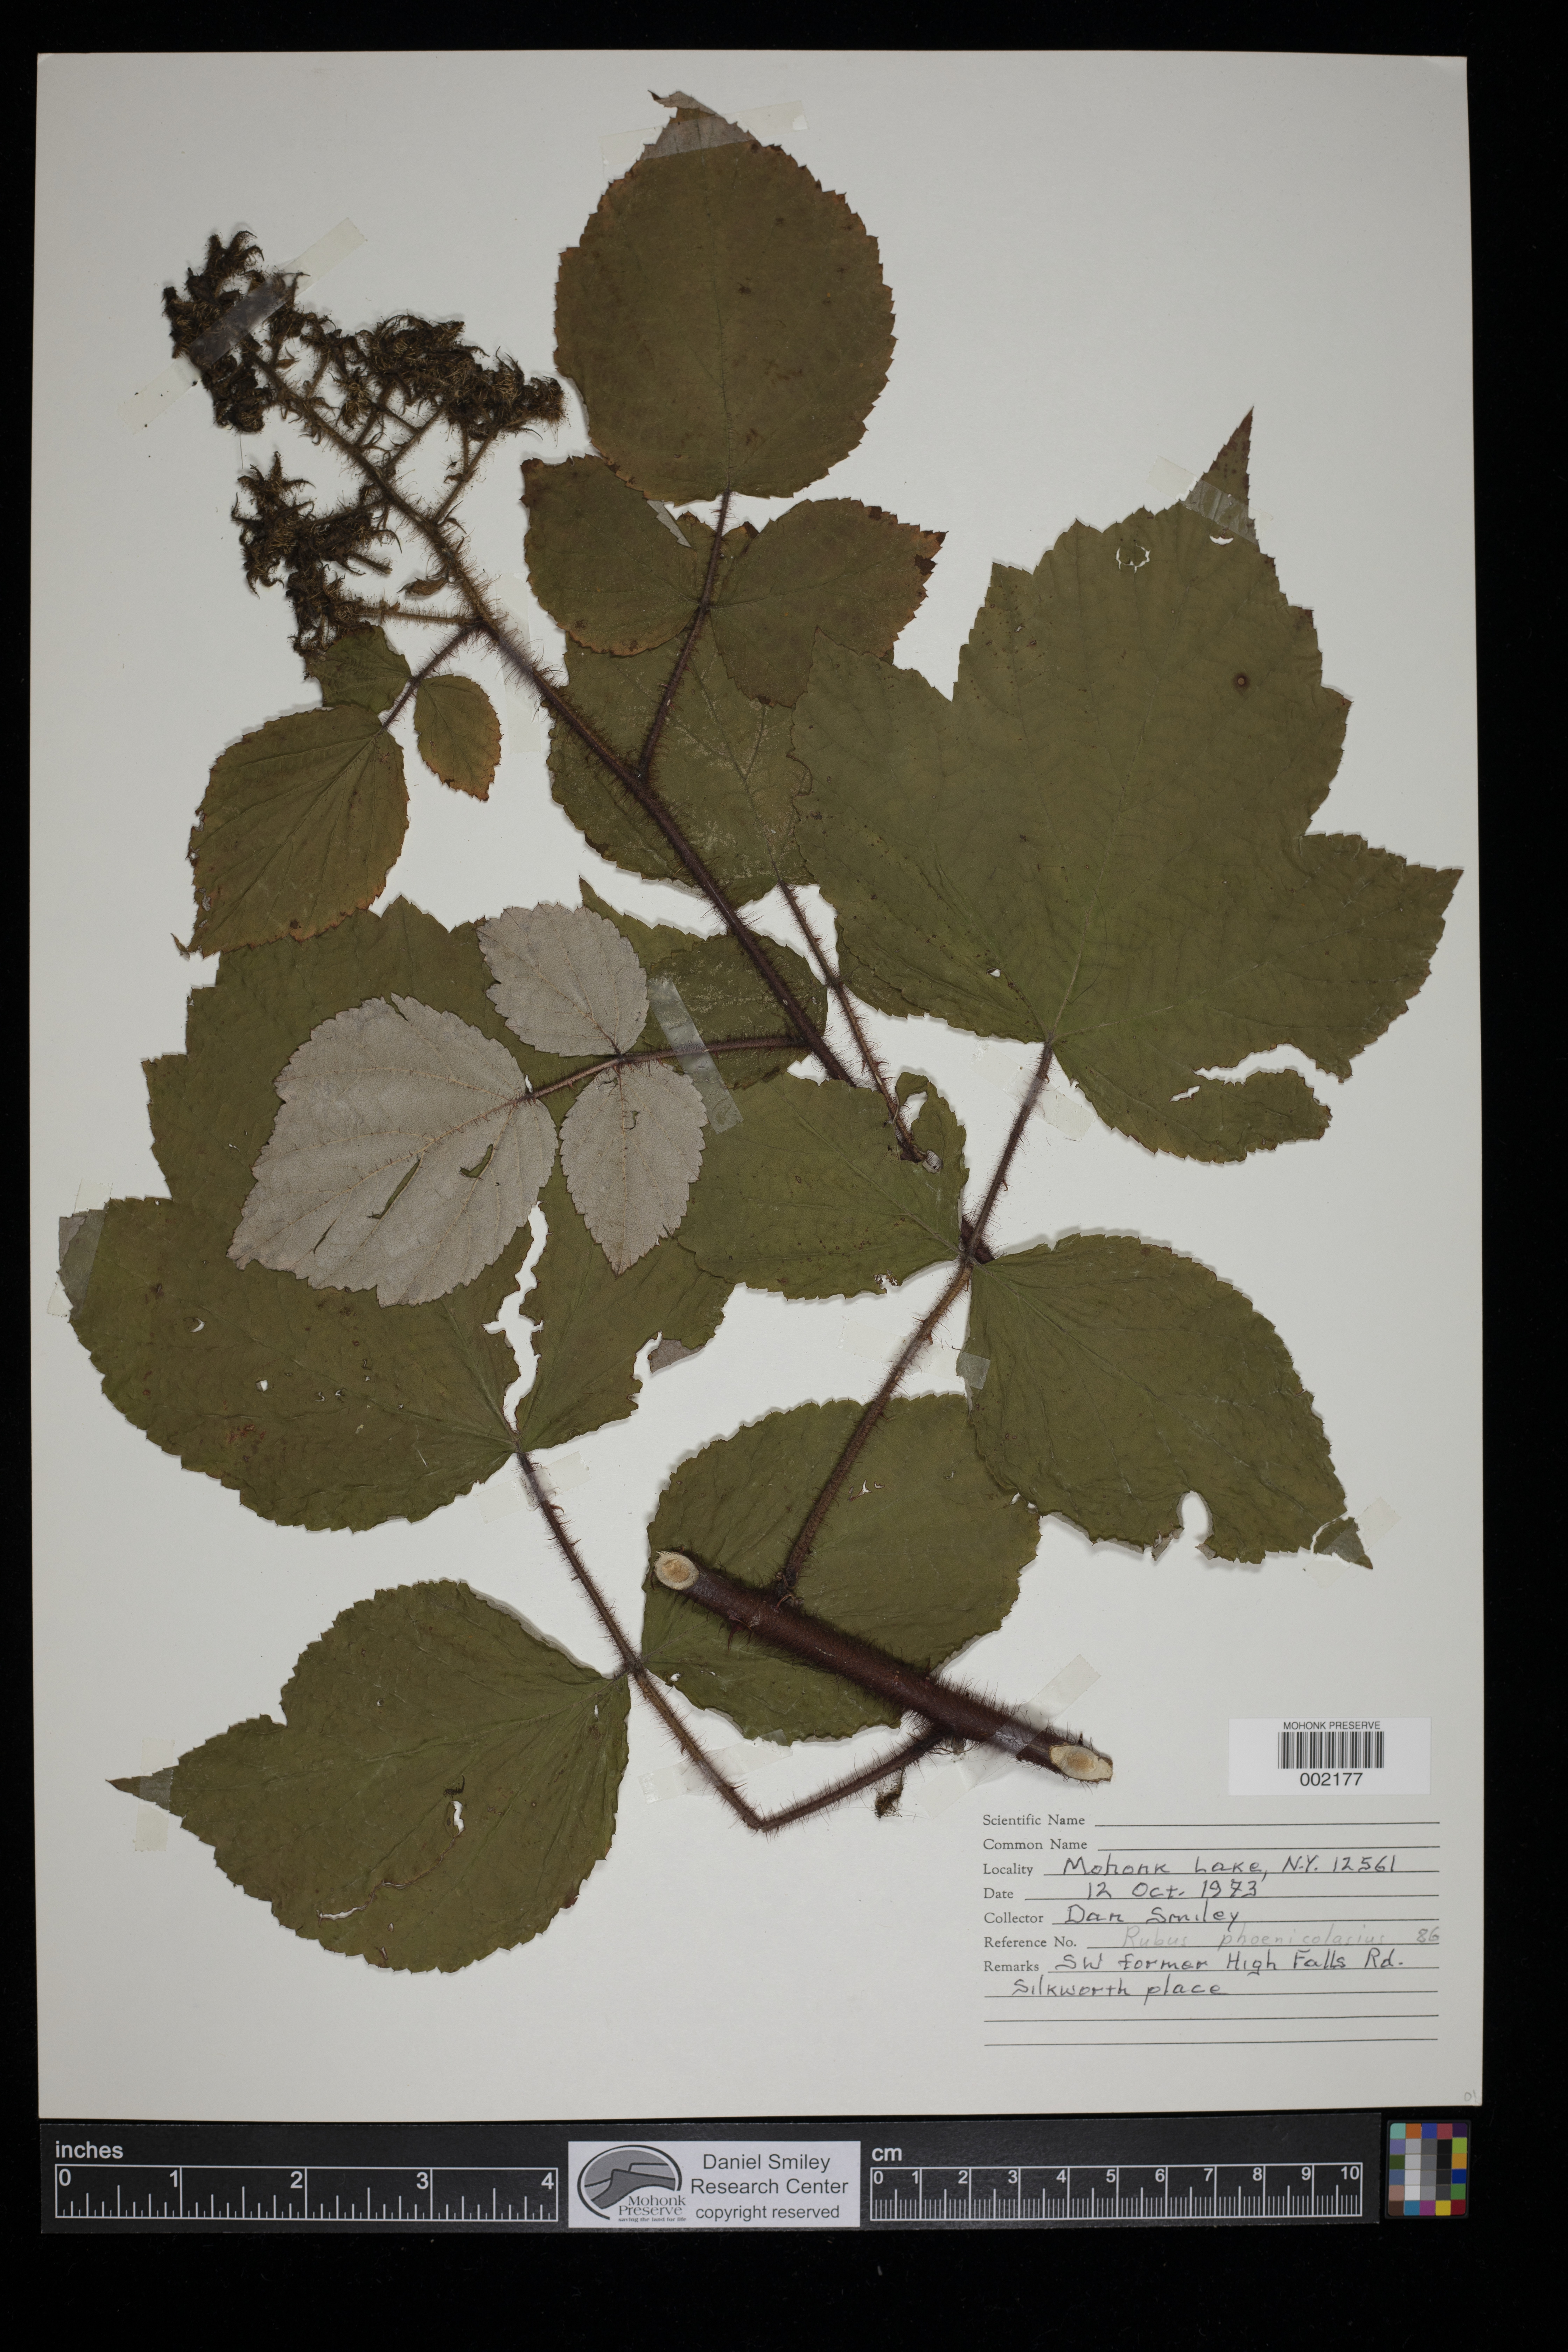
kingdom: Plantae
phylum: Tracheophyta
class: Magnoliopsida
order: Rosales
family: Rosaceae
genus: Rubus
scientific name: Rubus phoenicolasius
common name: Japanese wineberry
